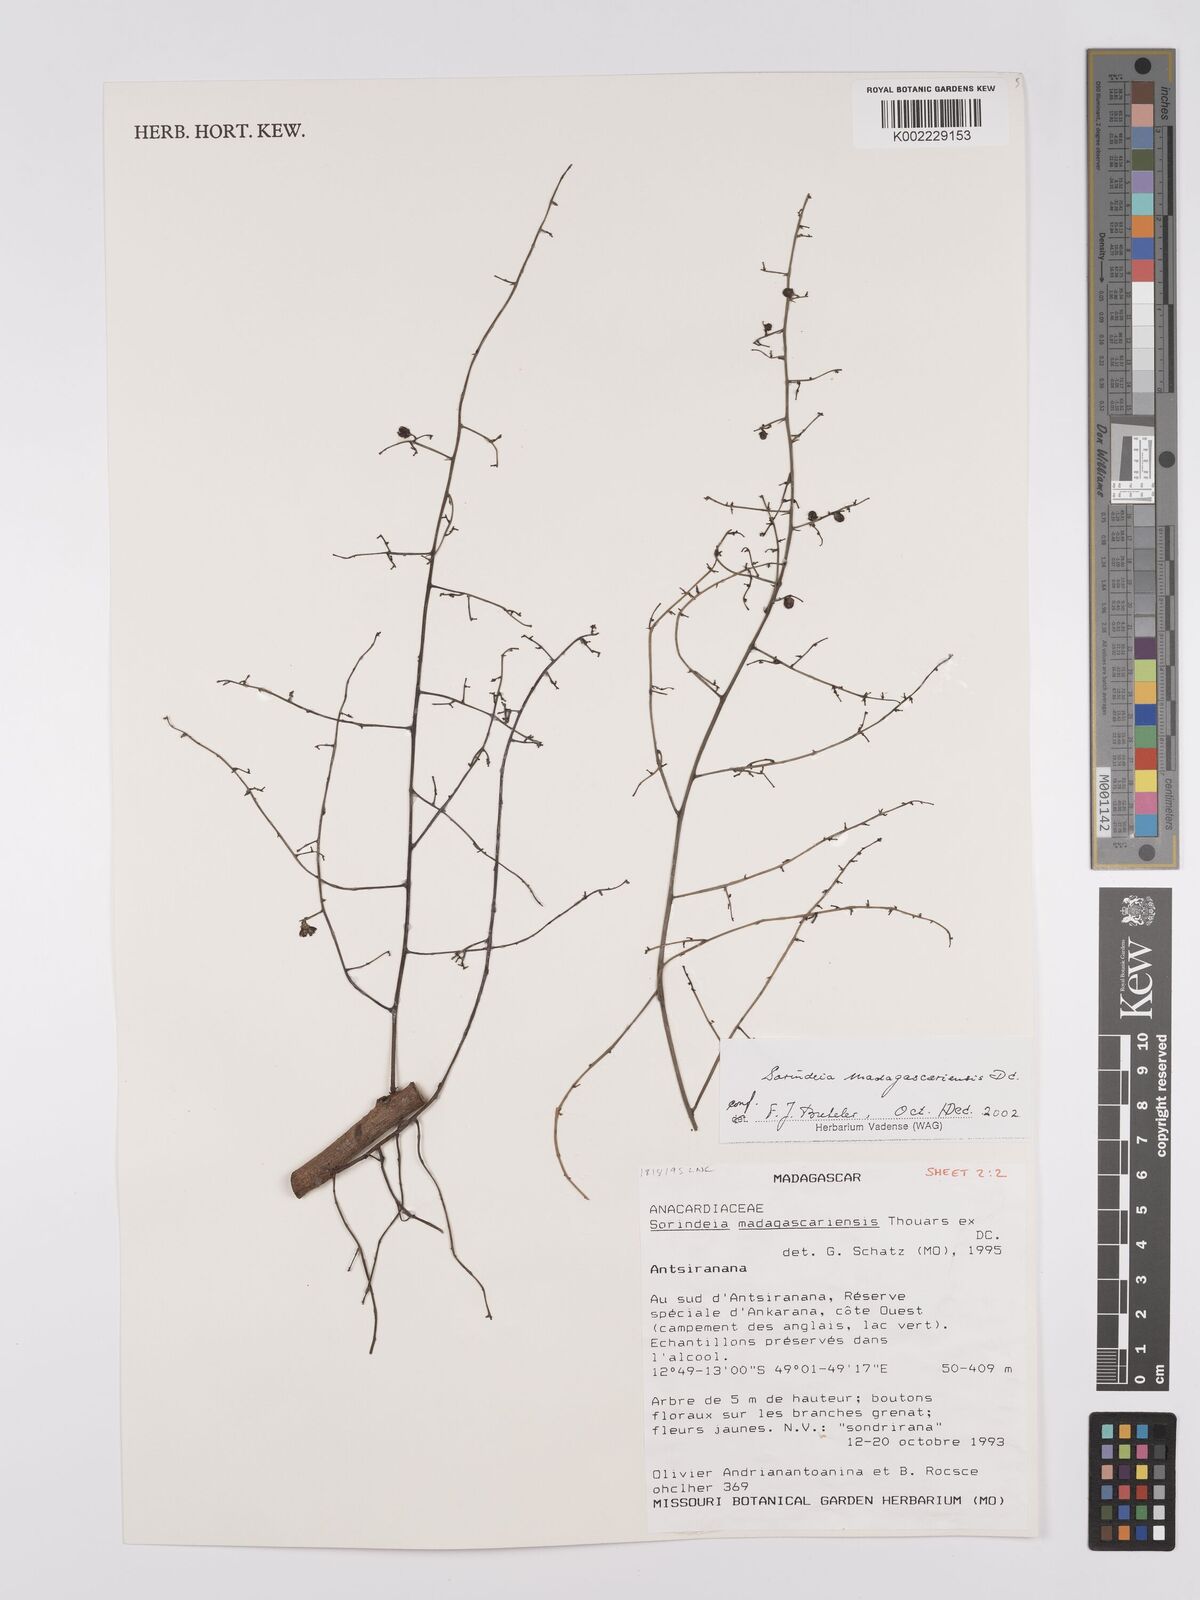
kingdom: Plantae
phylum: Tracheophyta
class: Magnoliopsida
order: Sapindales
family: Anacardiaceae
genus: Sorindeia
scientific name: Sorindeia madagascariensis
